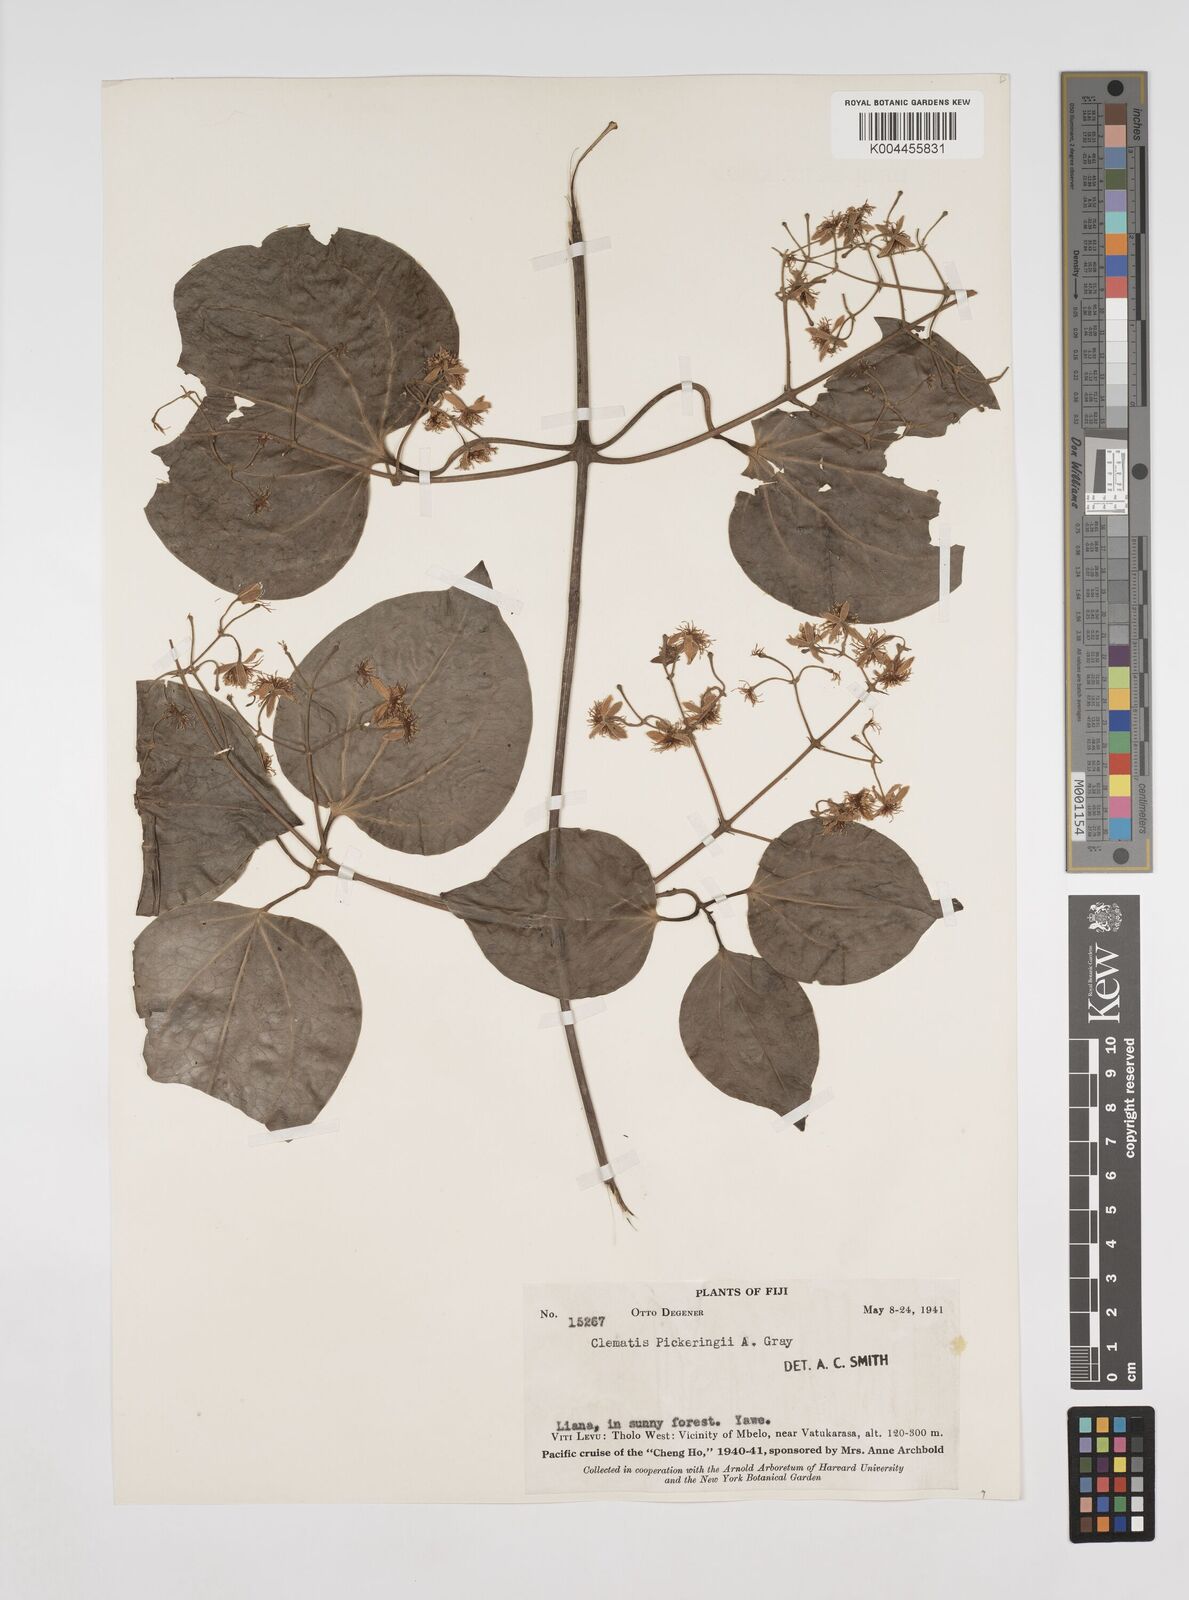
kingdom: Plantae
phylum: Tracheophyta
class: Magnoliopsida
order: Ranunculales
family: Ranunculaceae
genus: Clematis
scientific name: Clematis pickeringii
